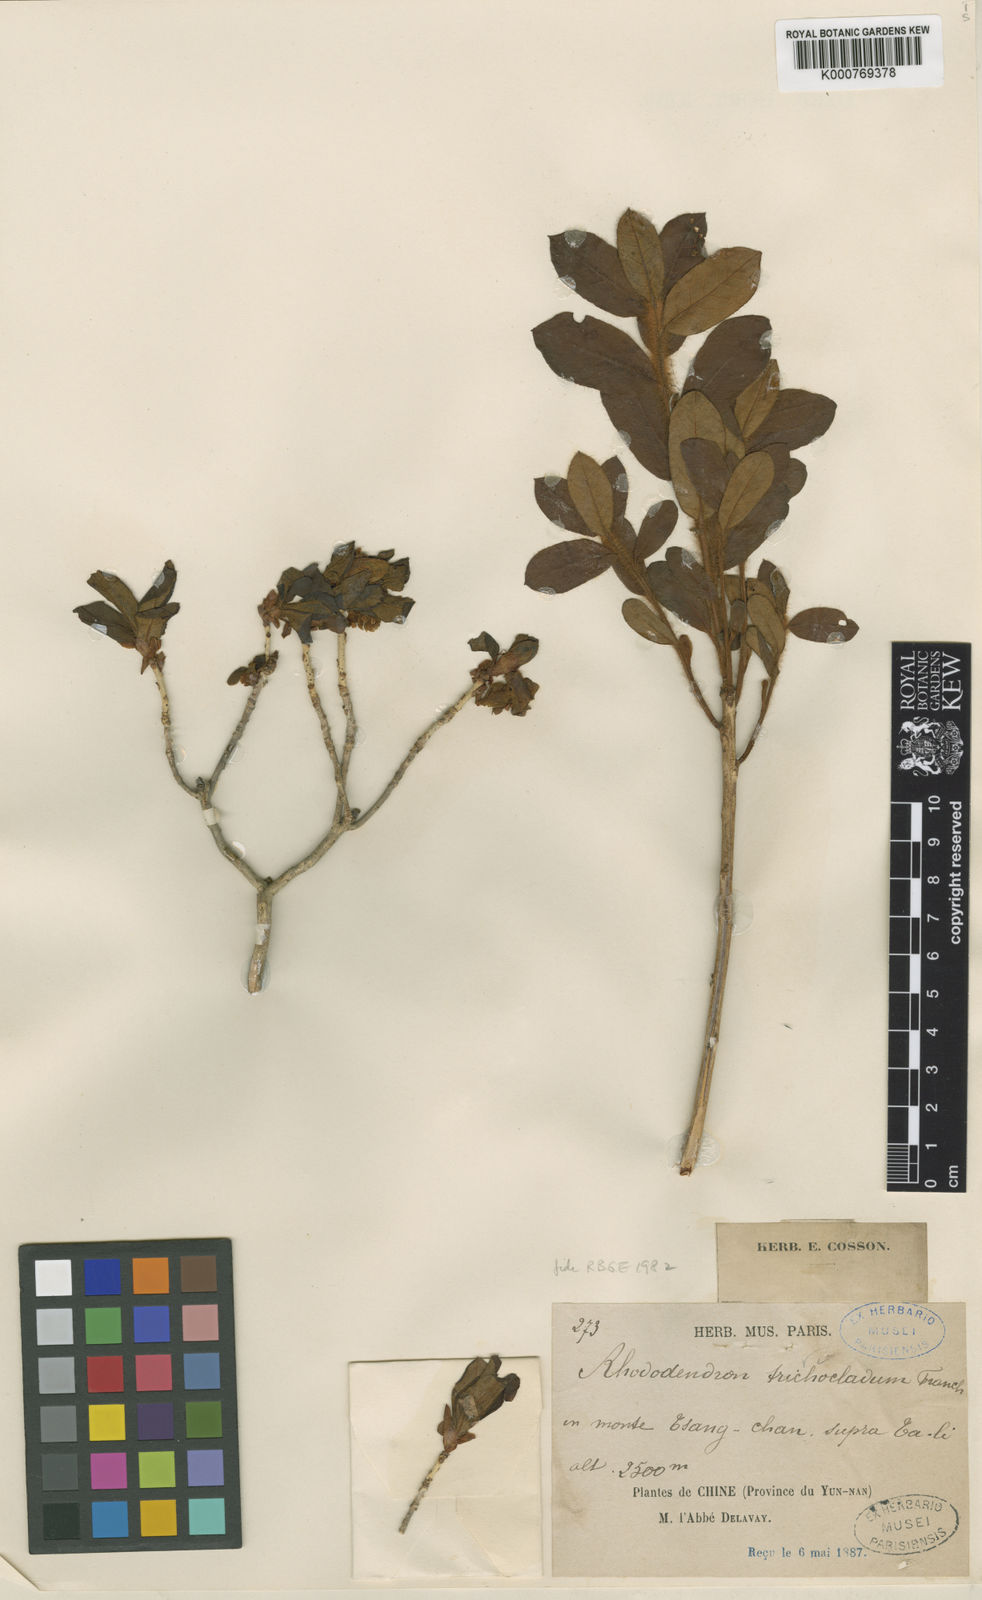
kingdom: Plantae
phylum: Tracheophyta
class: Magnoliopsida
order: Ericales
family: Ericaceae
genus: Rhododendron
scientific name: Rhododendron trichocladum
